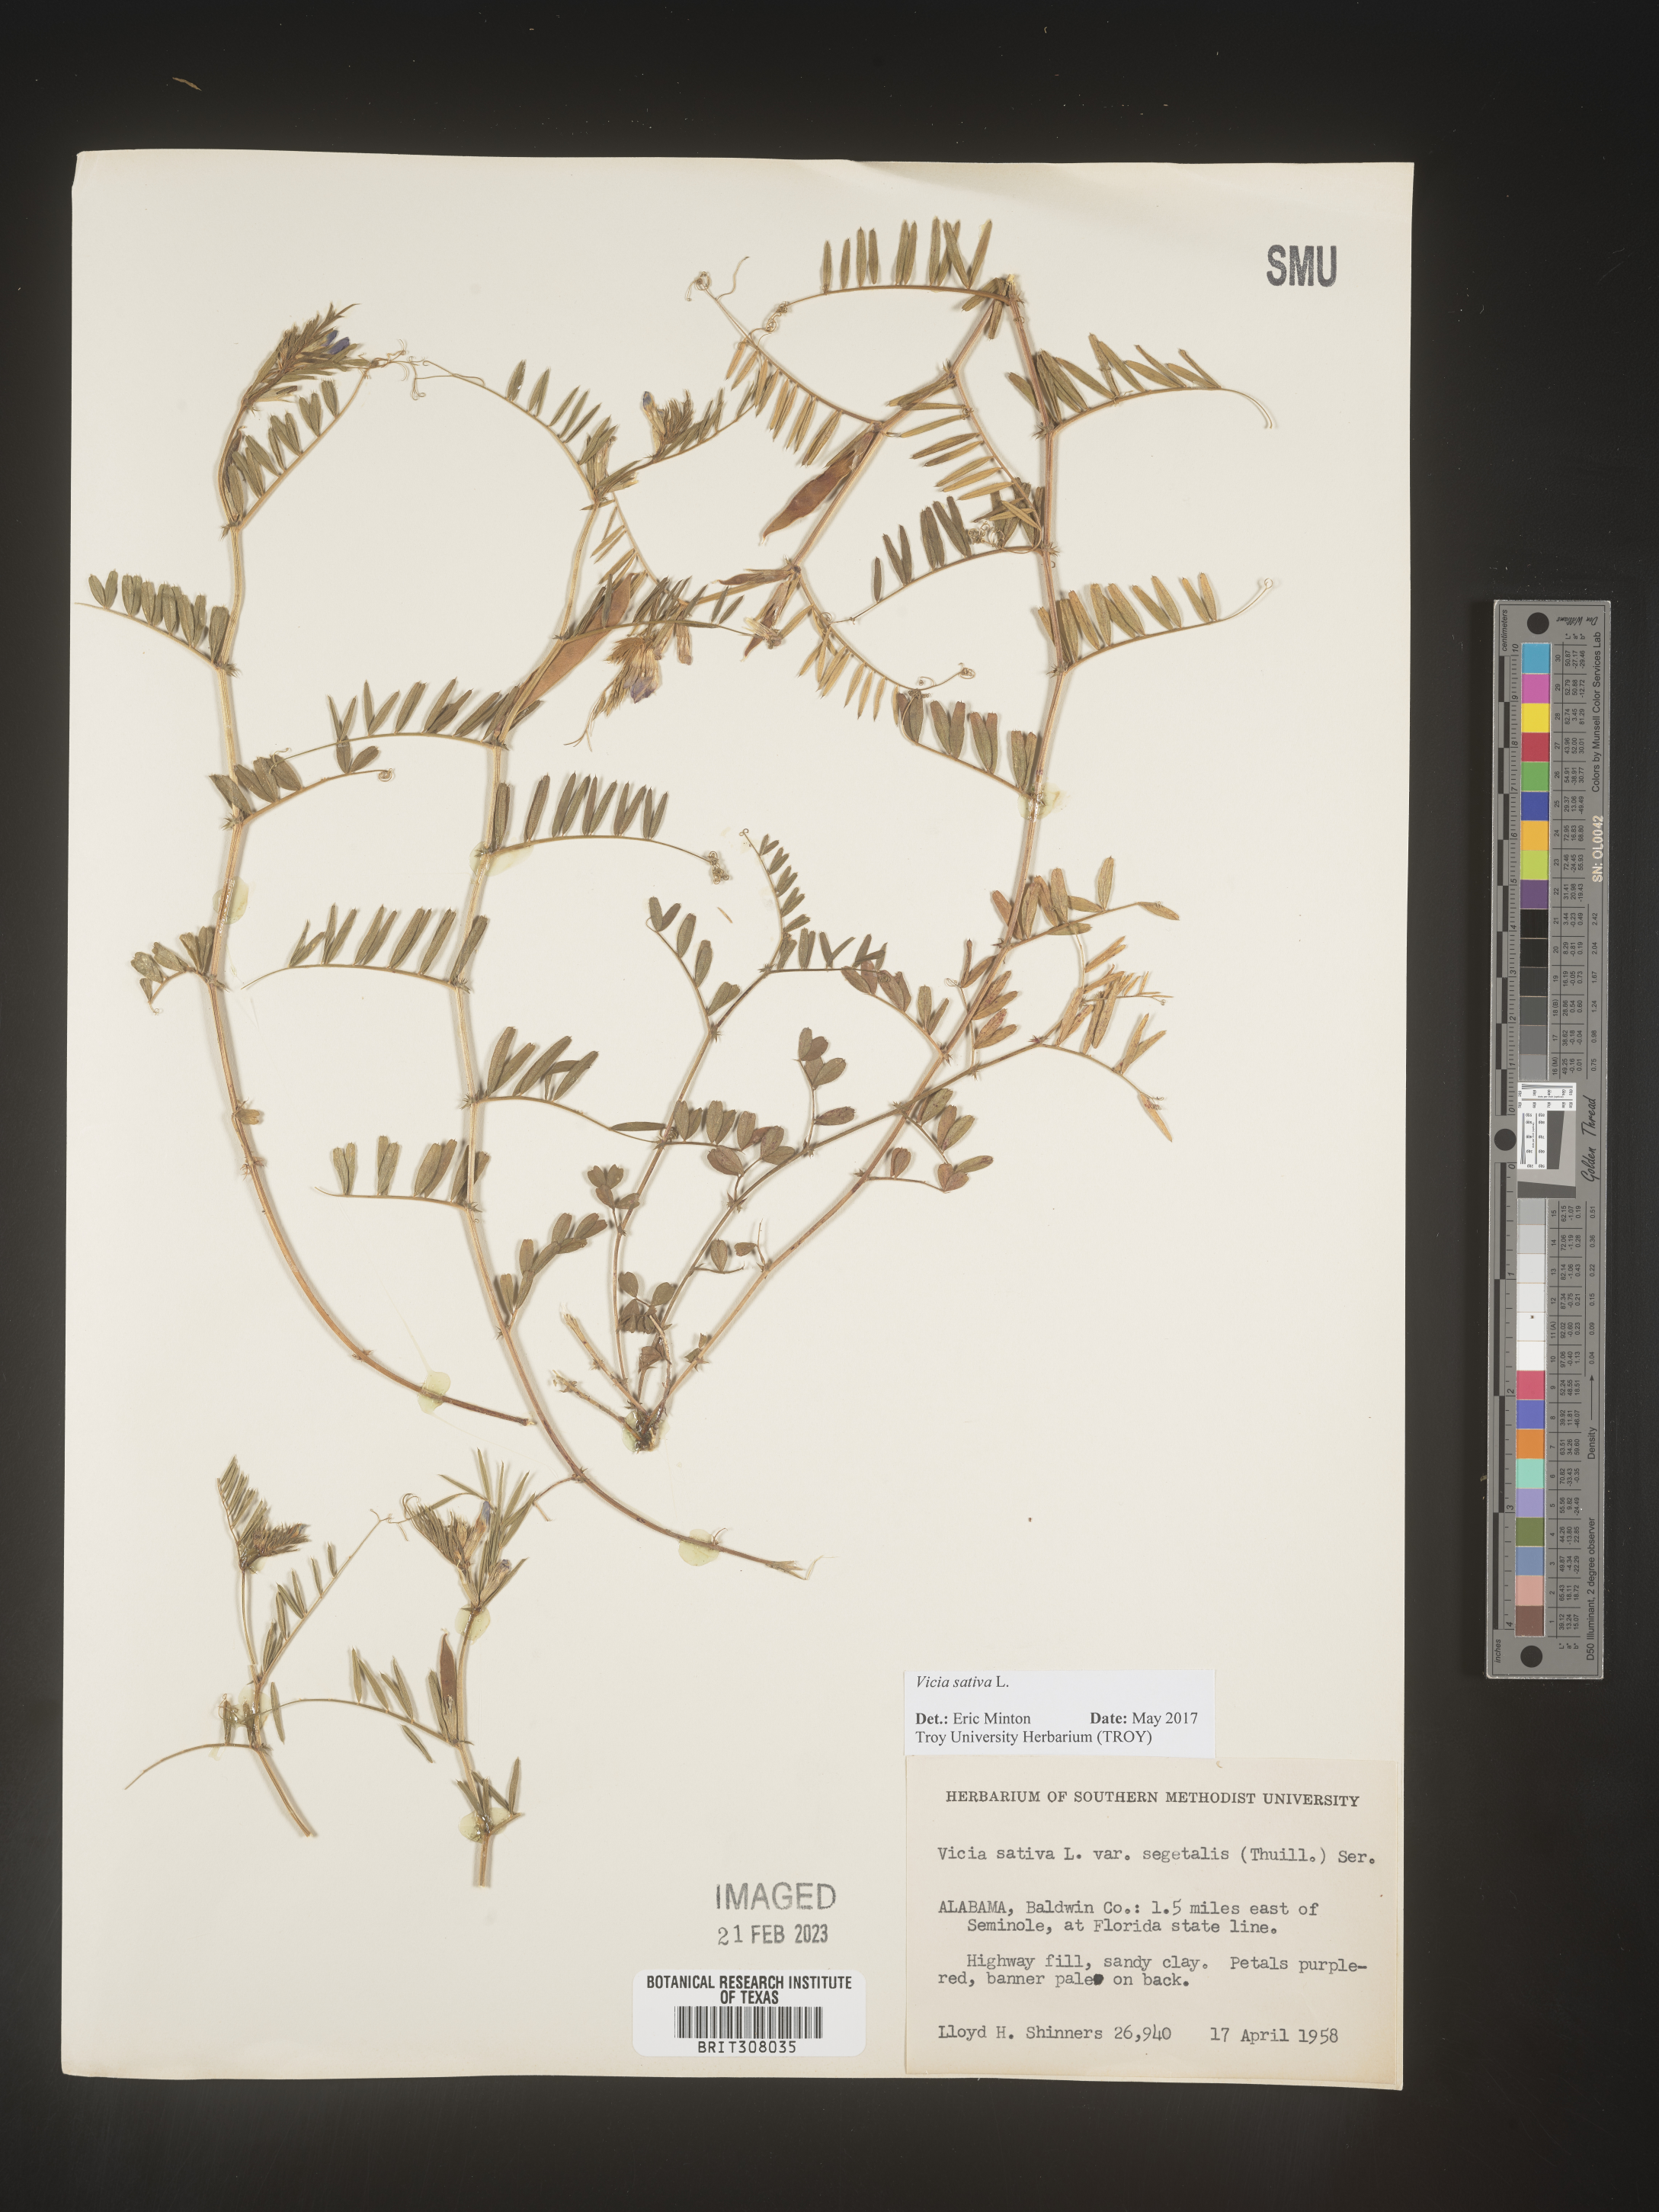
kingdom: Plantae
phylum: Tracheophyta
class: Magnoliopsida
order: Fabales
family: Fabaceae
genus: Vicia
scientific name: Vicia sativa
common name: Garden vetch
